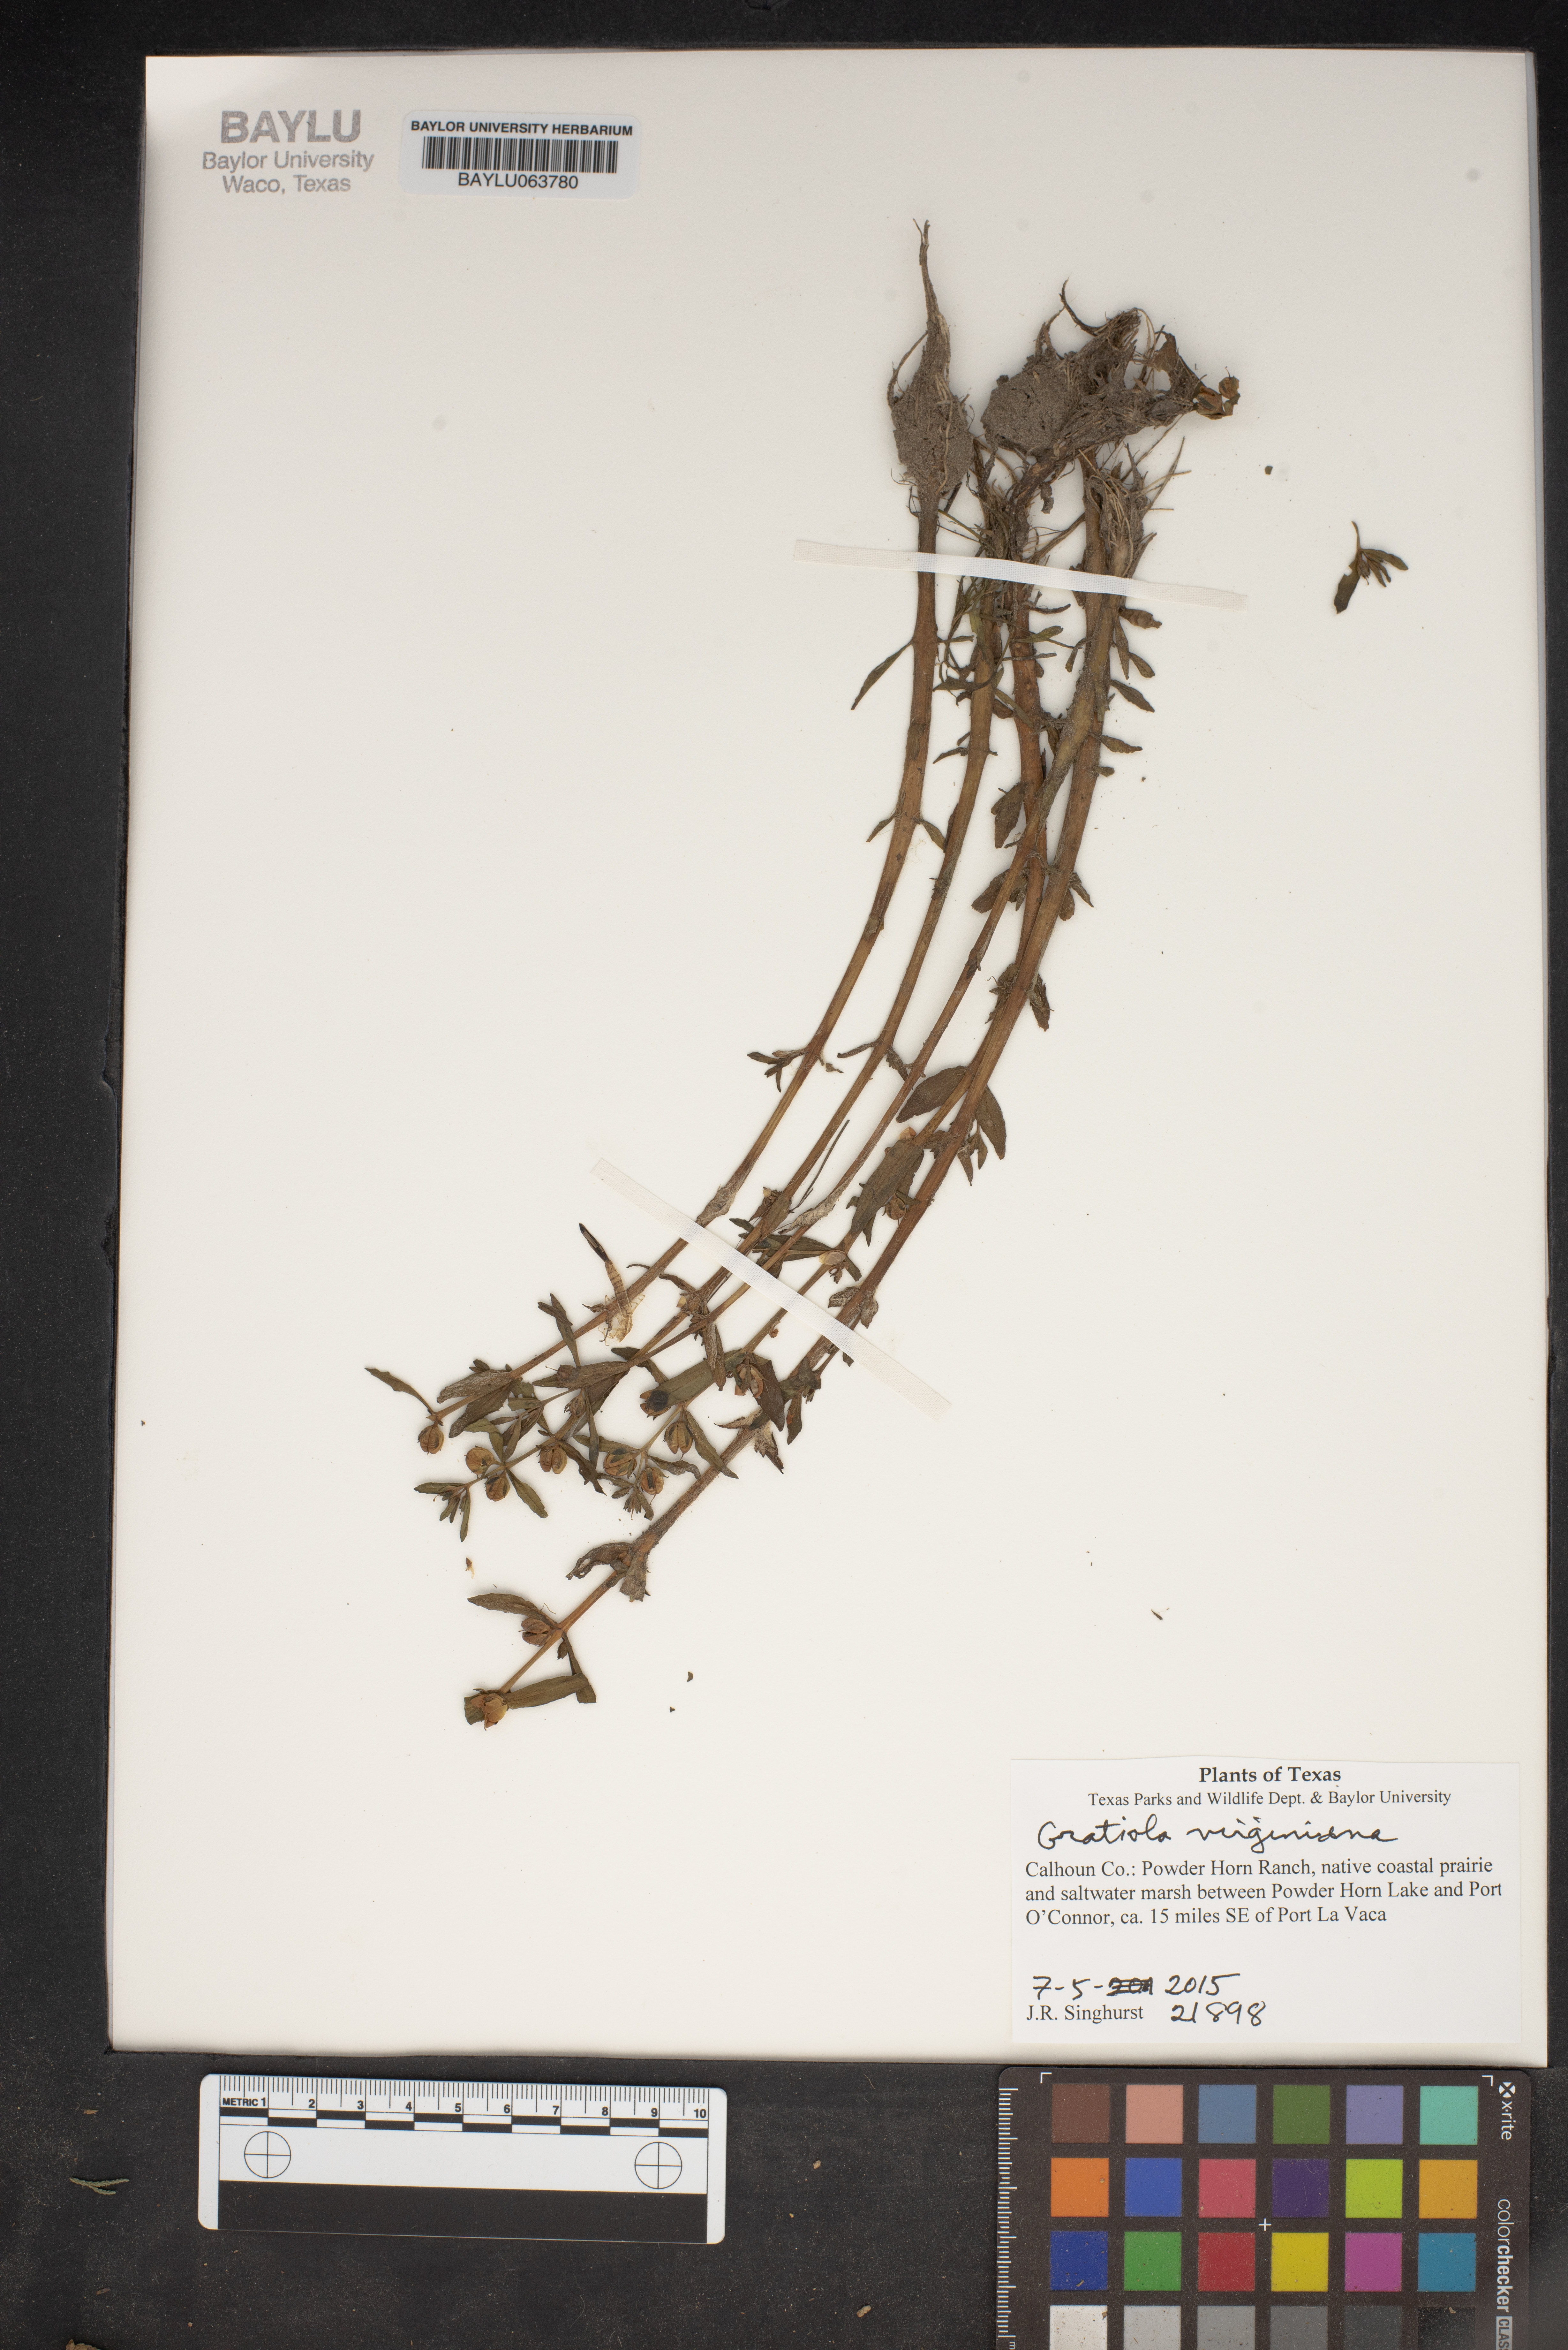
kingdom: Plantae
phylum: Tracheophyta
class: Magnoliopsida
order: Lamiales
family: Plantaginaceae
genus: Gratiola
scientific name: Gratiola virginiana
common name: Roundfruit hedgehyssop
